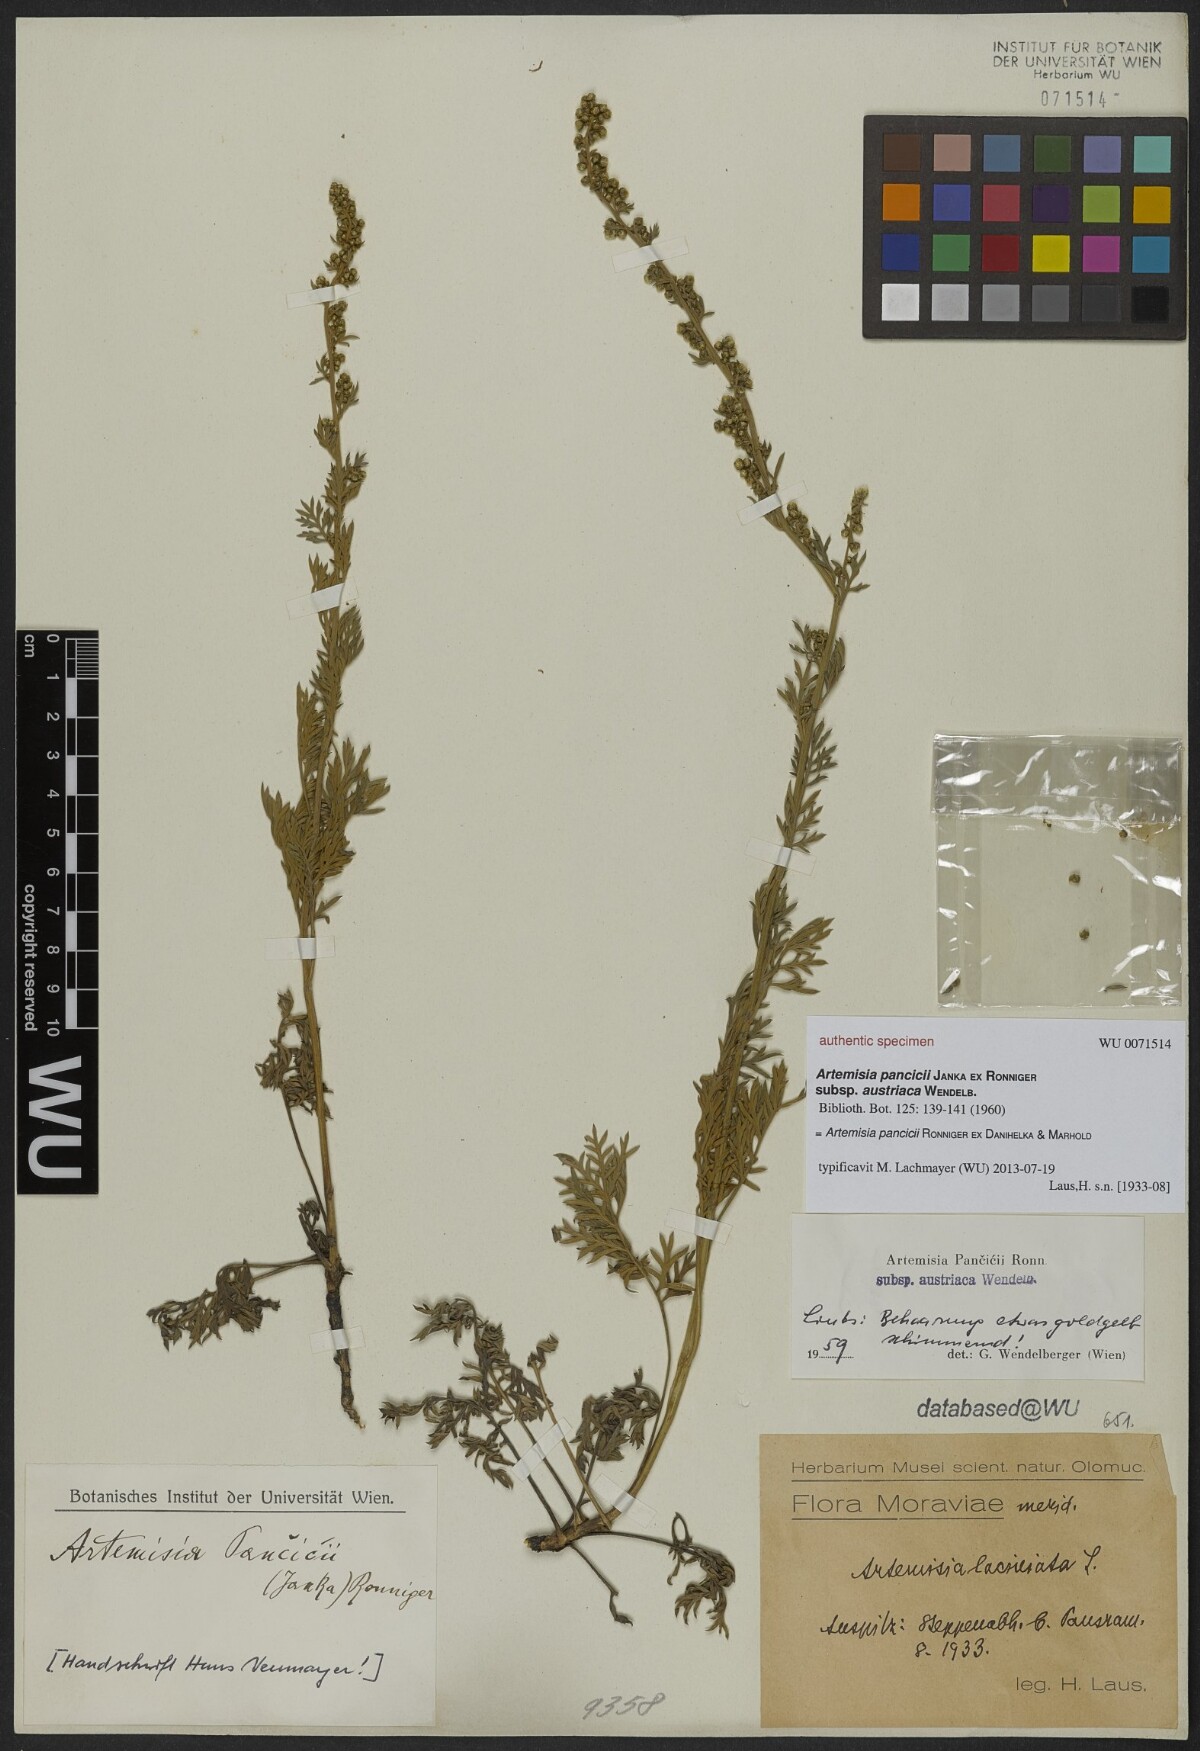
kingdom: Plantae
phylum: Tracheophyta
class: Magnoliopsida
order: Asterales
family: Asteraceae
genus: Artemisia
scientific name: Artemisia pancicii
